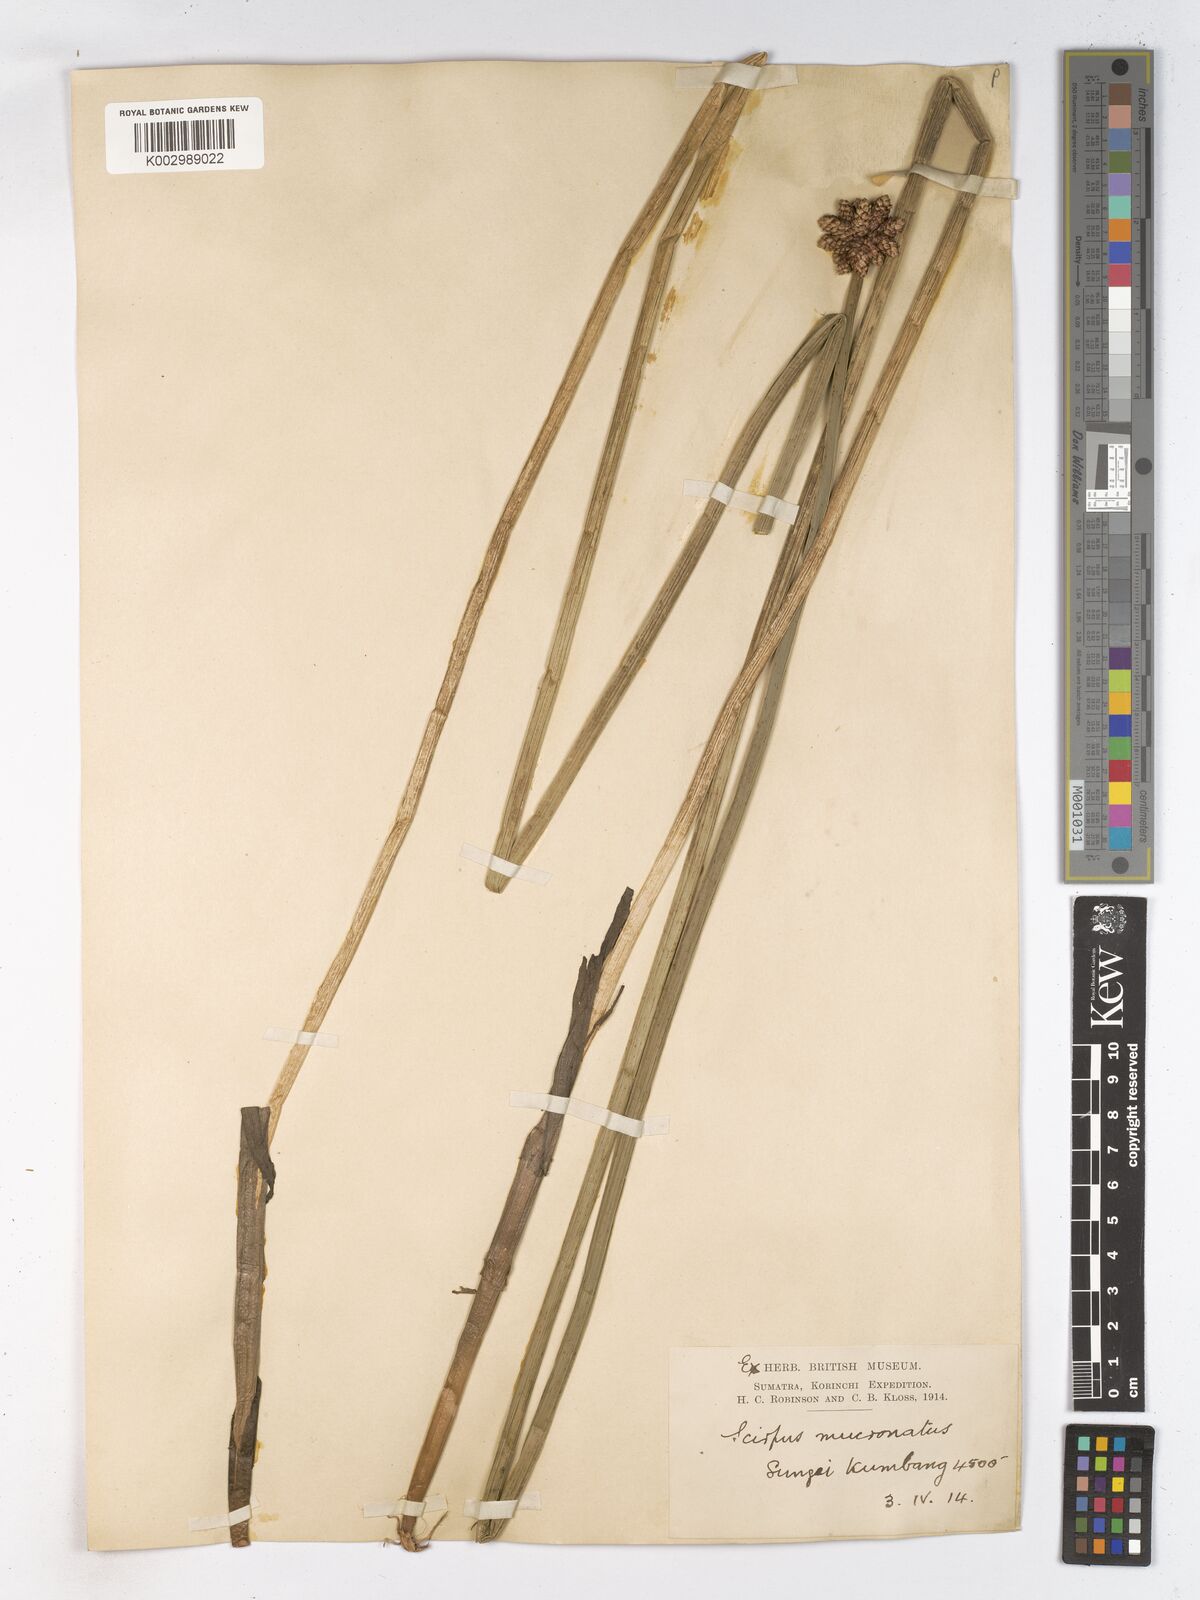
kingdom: Plantae
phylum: Tracheophyta
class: Liliopsida
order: Poales
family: Cyperaceae
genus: Schoenoplectiella
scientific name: Schoenoplectiella mucronata
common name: Bog bulrush
